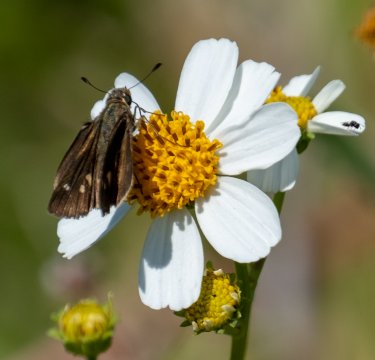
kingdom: Animalia
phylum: Arthropoda
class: Insecta
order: Lepidoptera
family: Hesperiidae
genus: Panoquina
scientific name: Panoquina ocola
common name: Ocola Skipper
